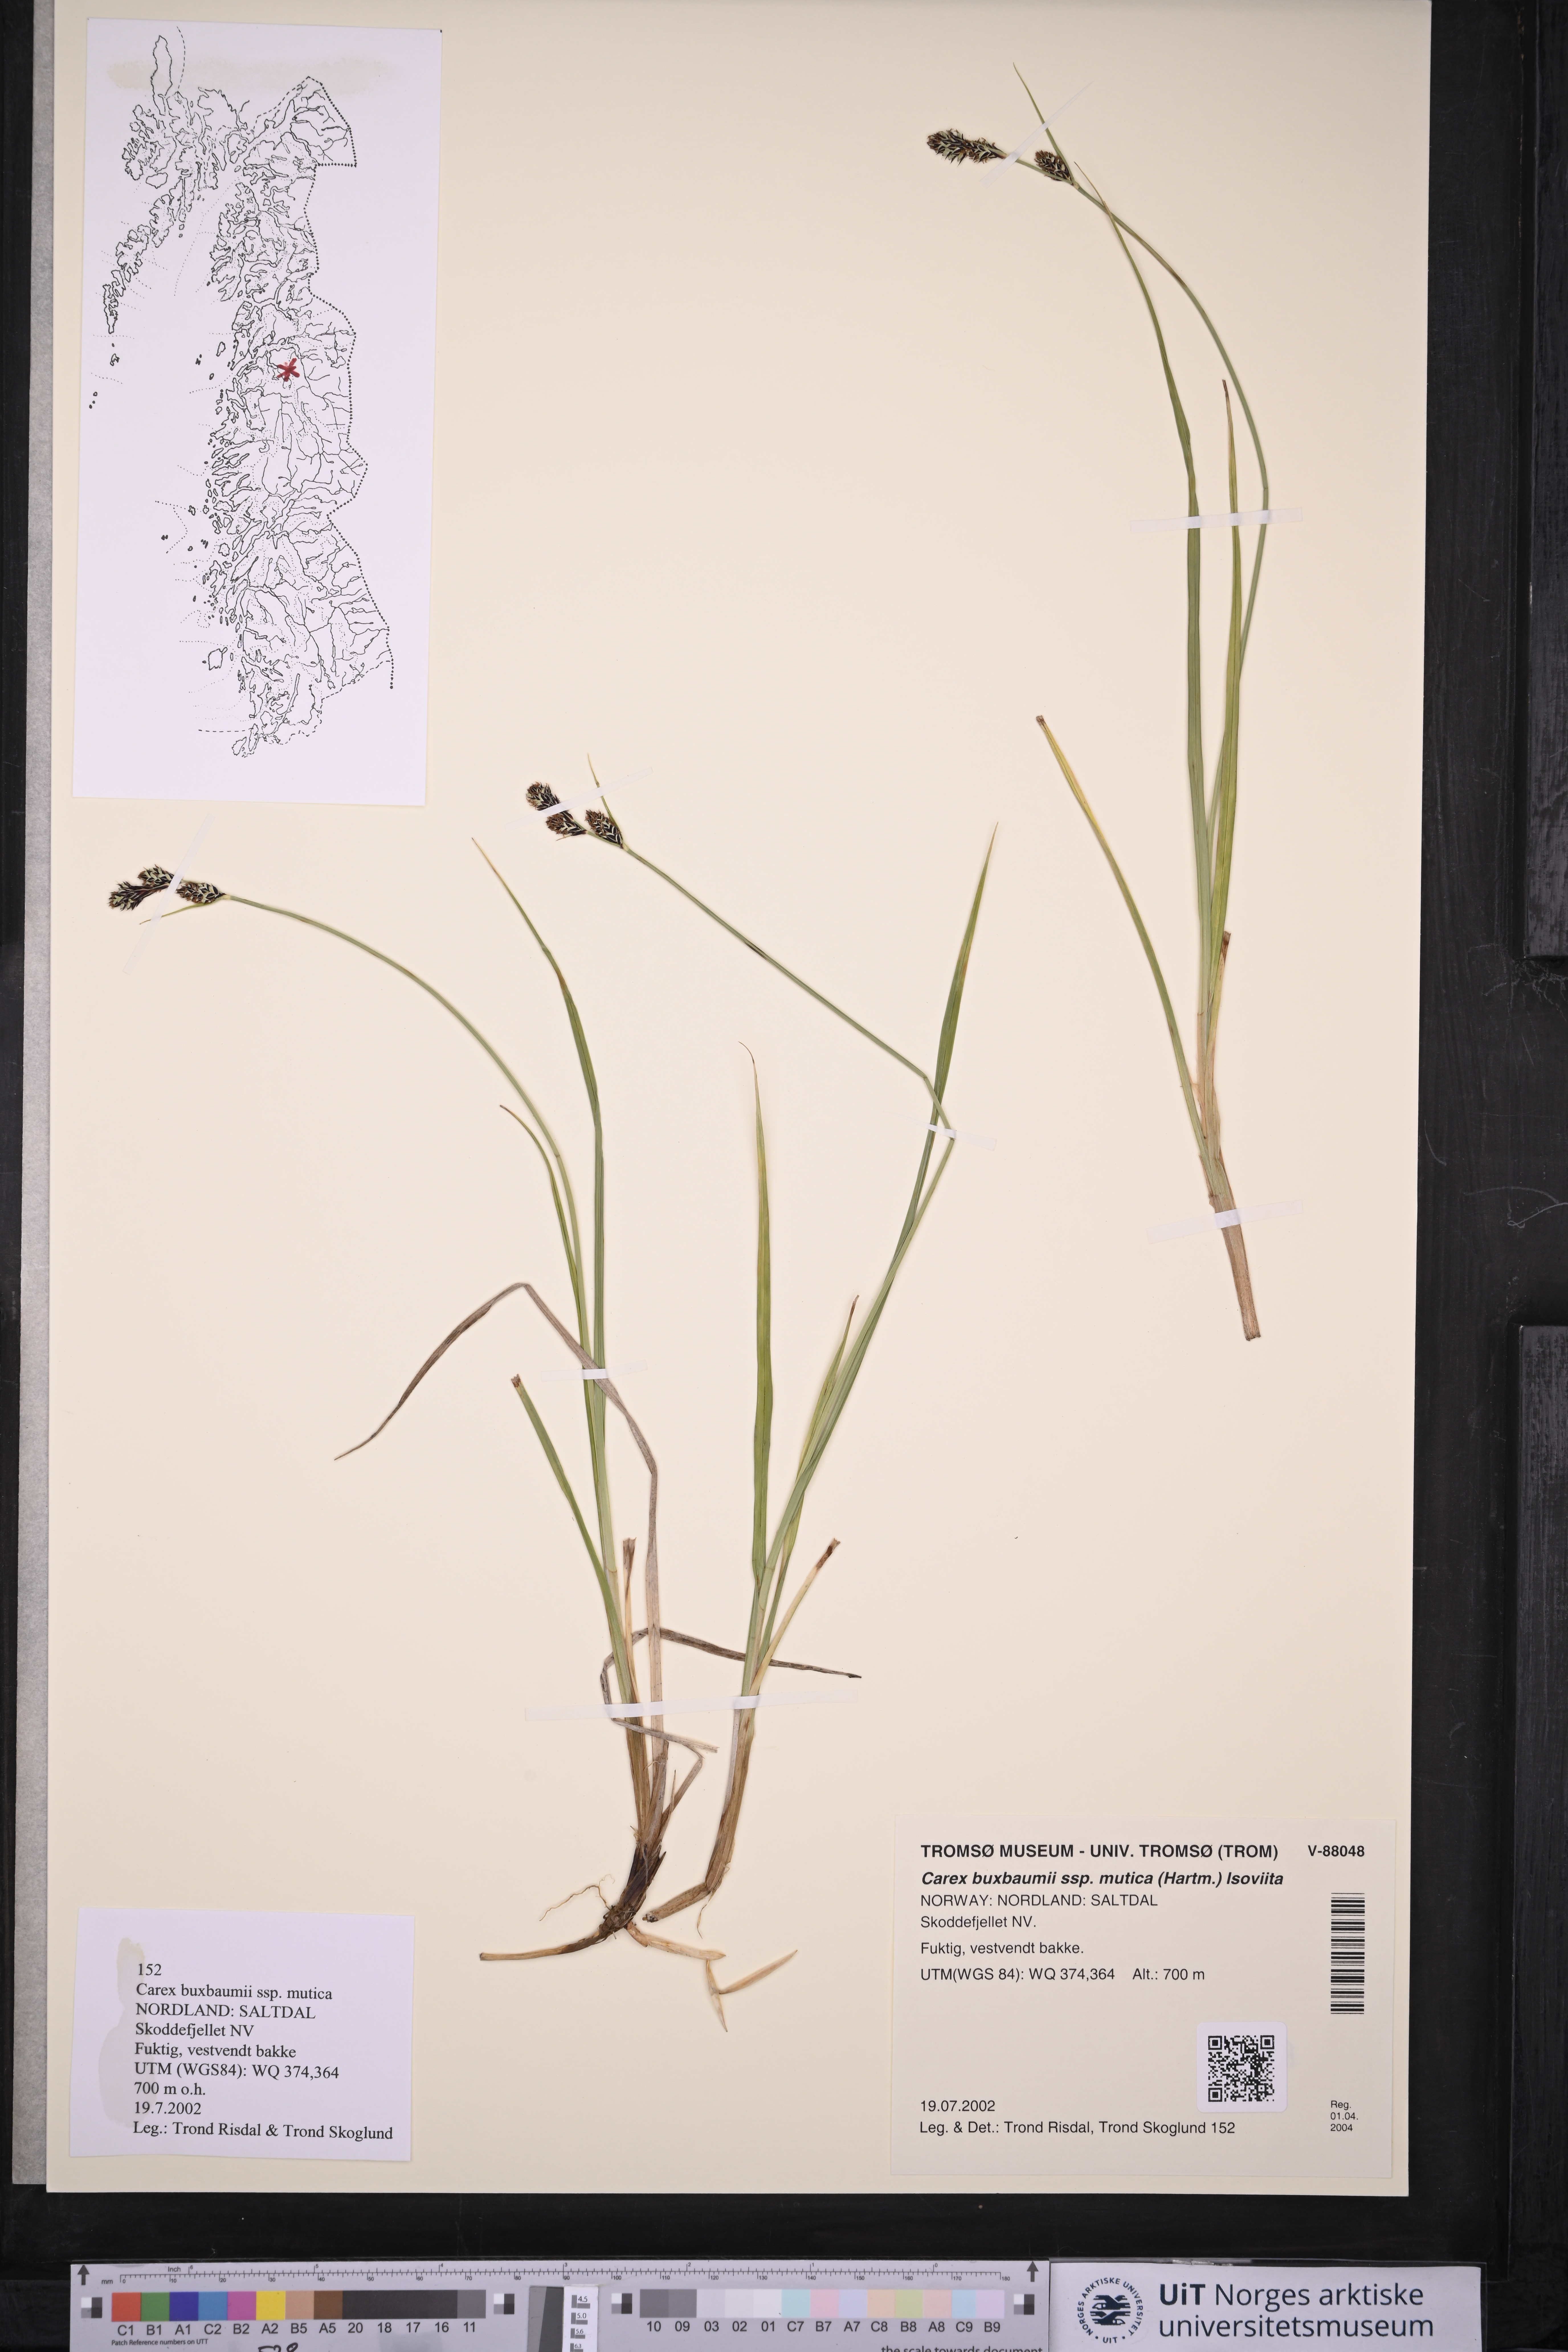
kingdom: Plantae
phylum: Tracheophyta
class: Liliopsida
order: Poales
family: Cyperaceae
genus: Carex
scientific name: Carex adelostoma
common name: Circumpolar sedge
